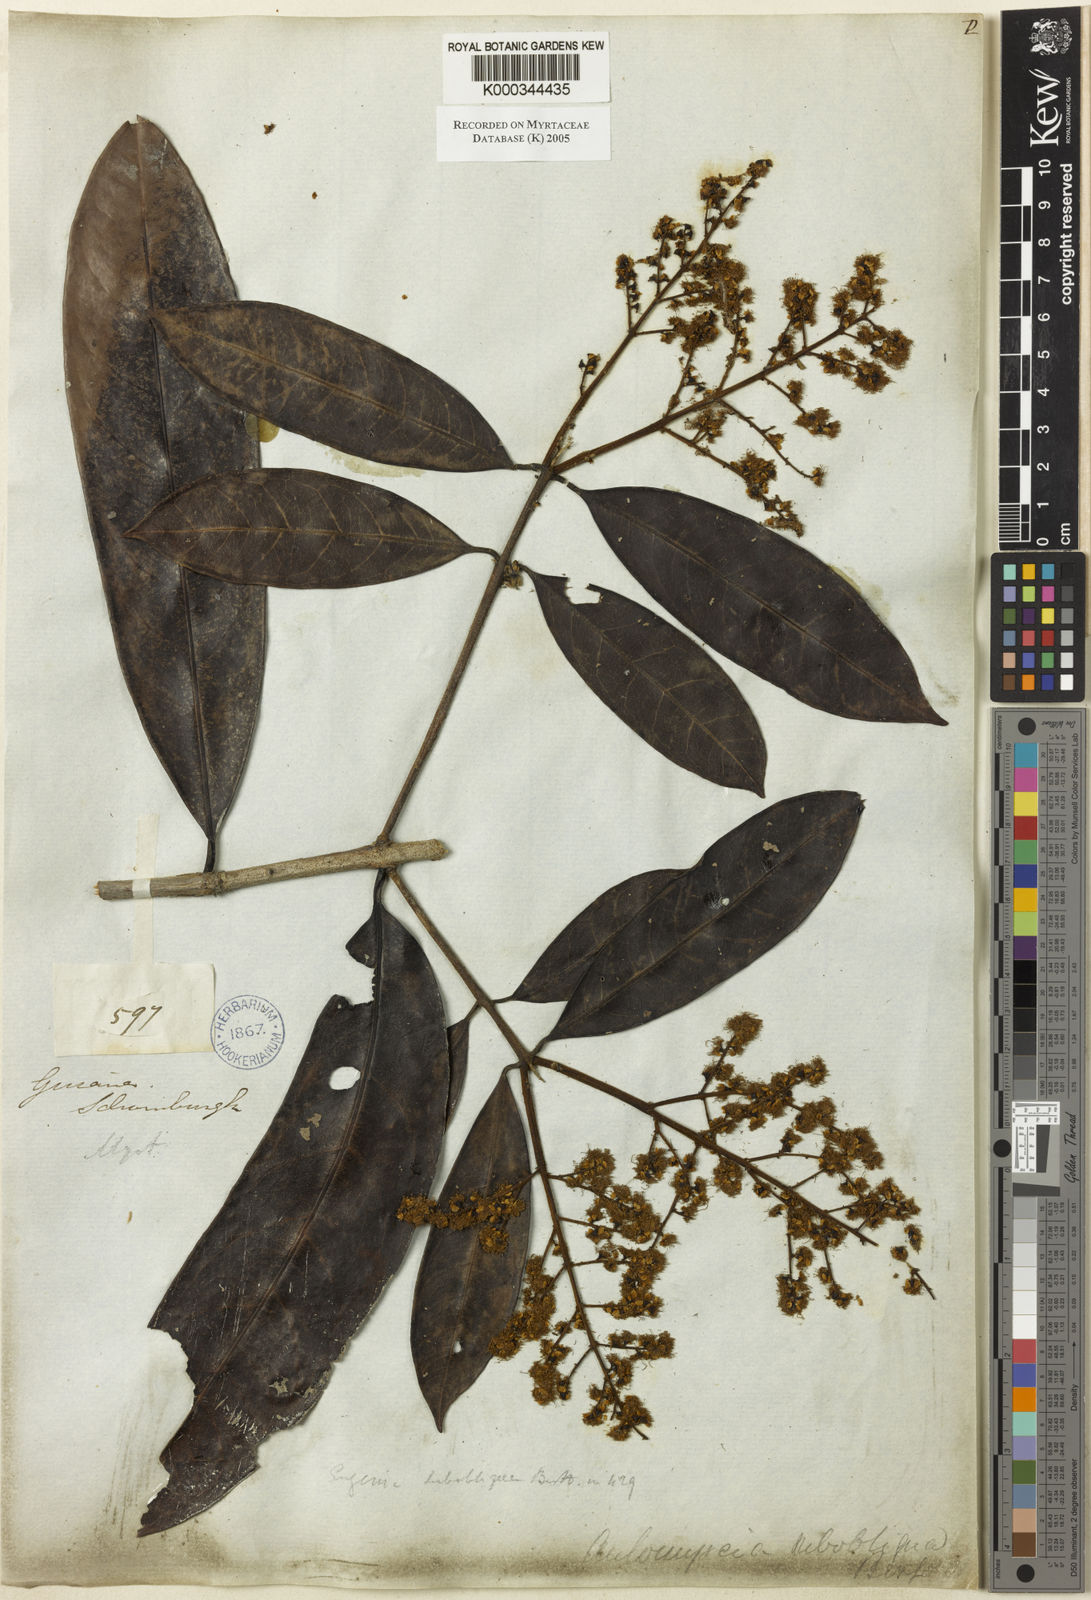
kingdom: Plantae
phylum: Tracheophyta
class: Magnoliopsida
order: Myrtales
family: Myrtaceae
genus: Myrcia
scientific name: Myrcia subobliqua
